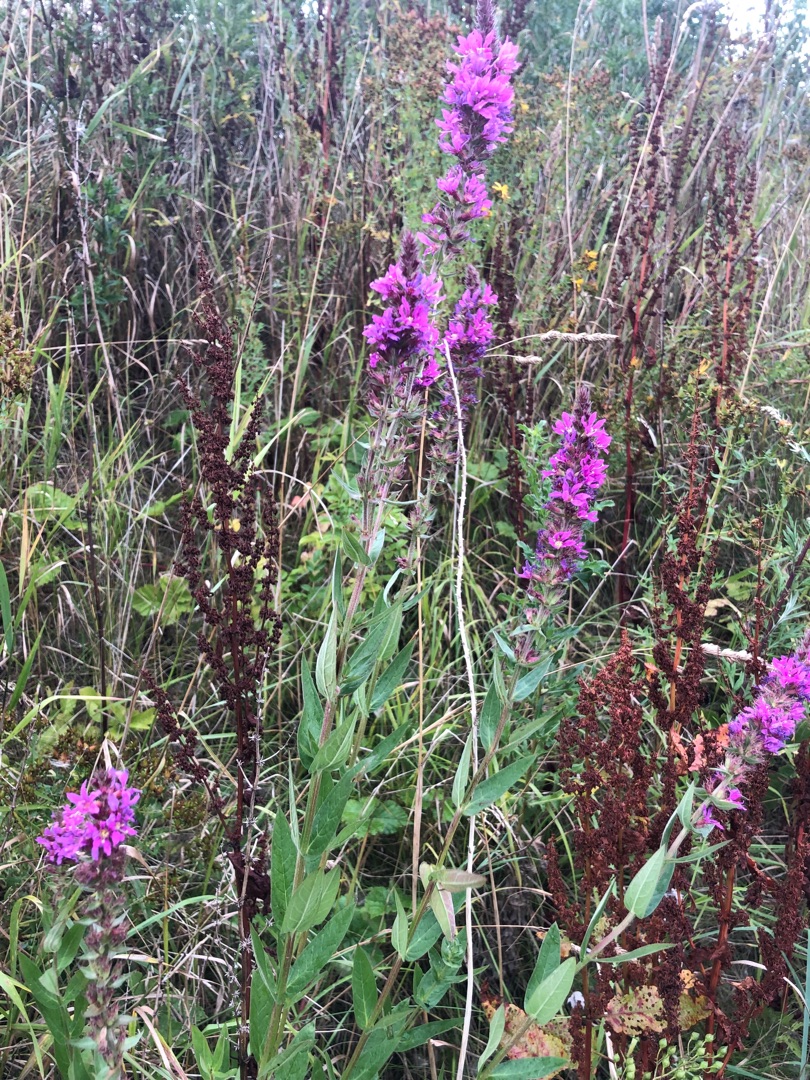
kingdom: Plantae
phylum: Tracheophyta
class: Magnoliopsida
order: Myrtales
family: Lythraceae
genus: Lythrum
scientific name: Lythrum salicaria
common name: Kattehale
